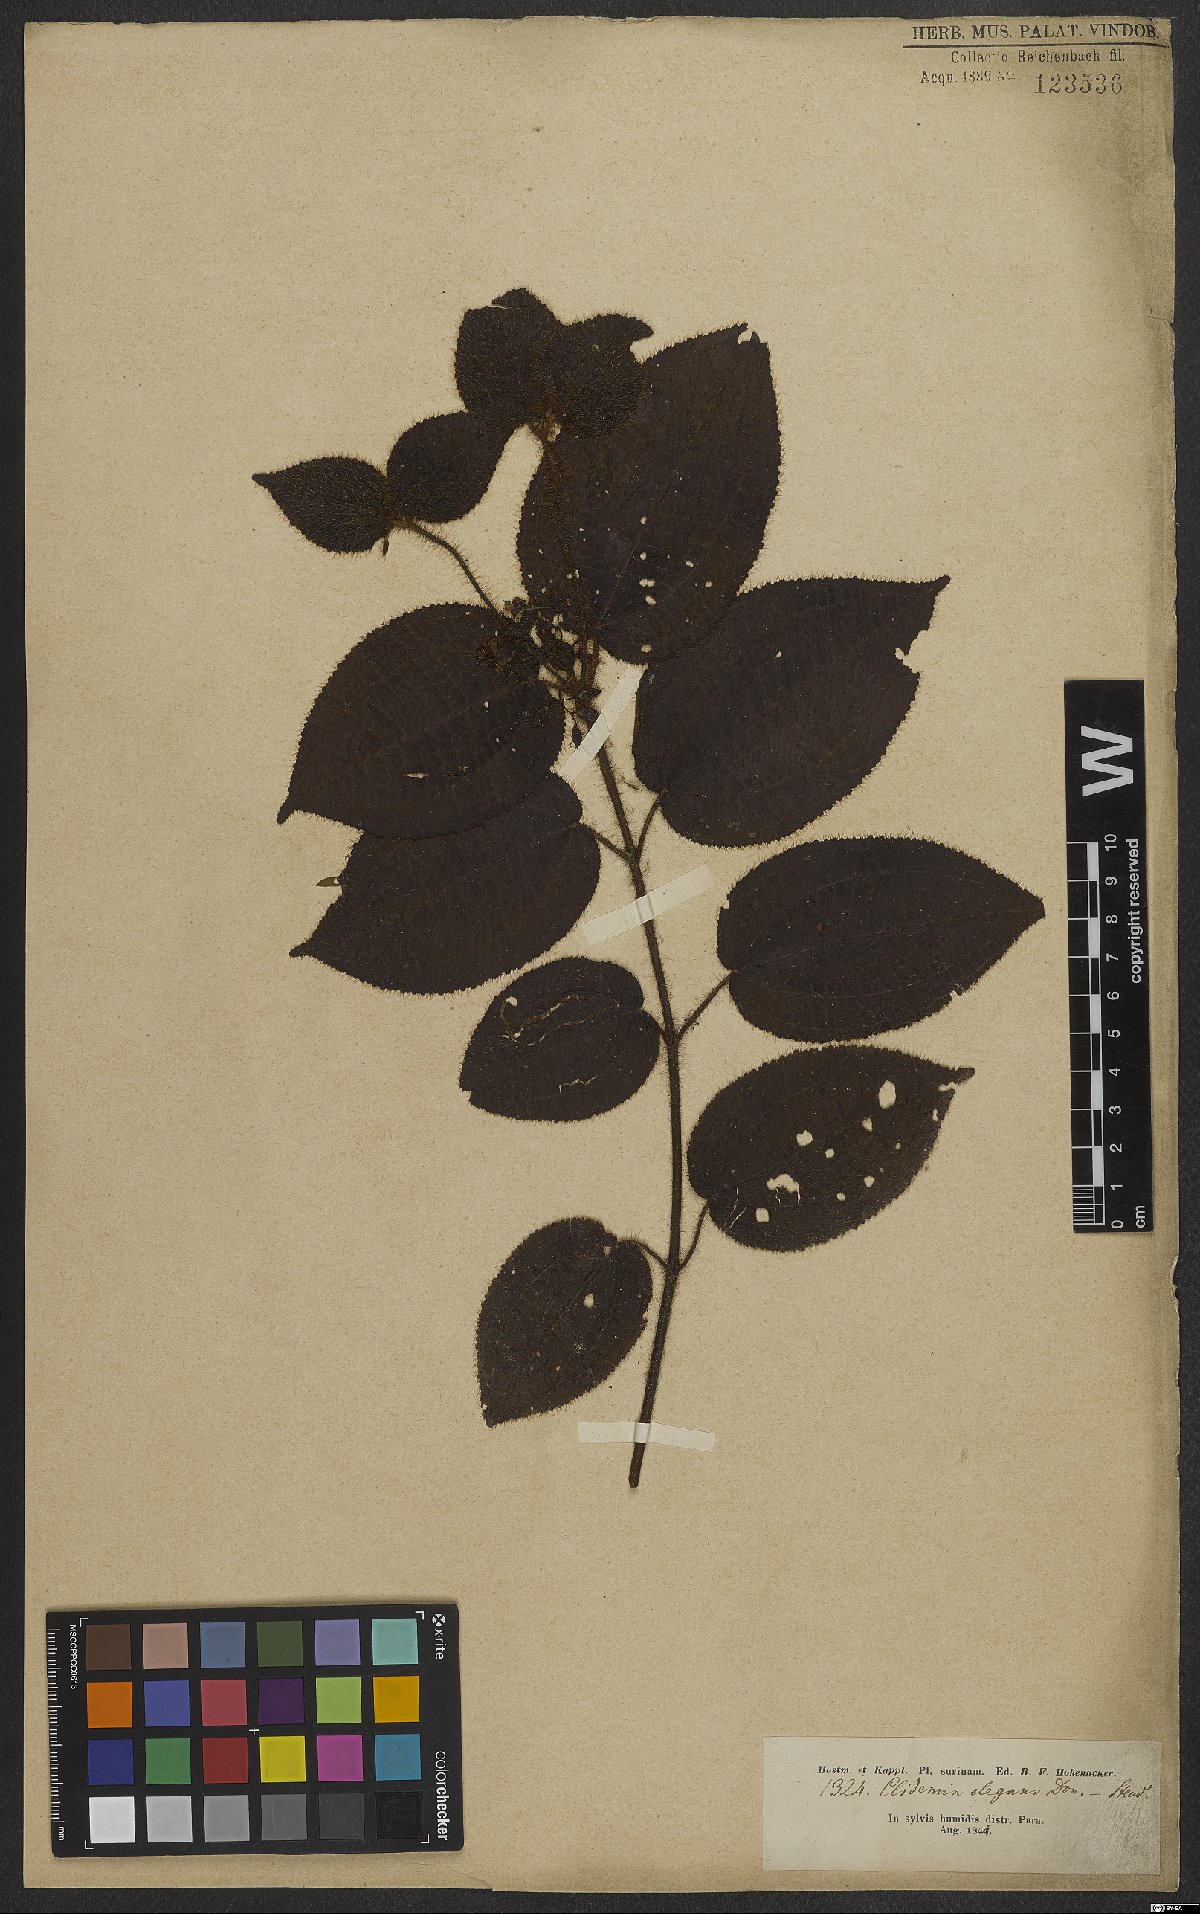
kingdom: Plantae
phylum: Tracheophyta
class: Magnoliopsida
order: Myrtales
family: Melastomataceae
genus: Miconia
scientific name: Miconia crenata
